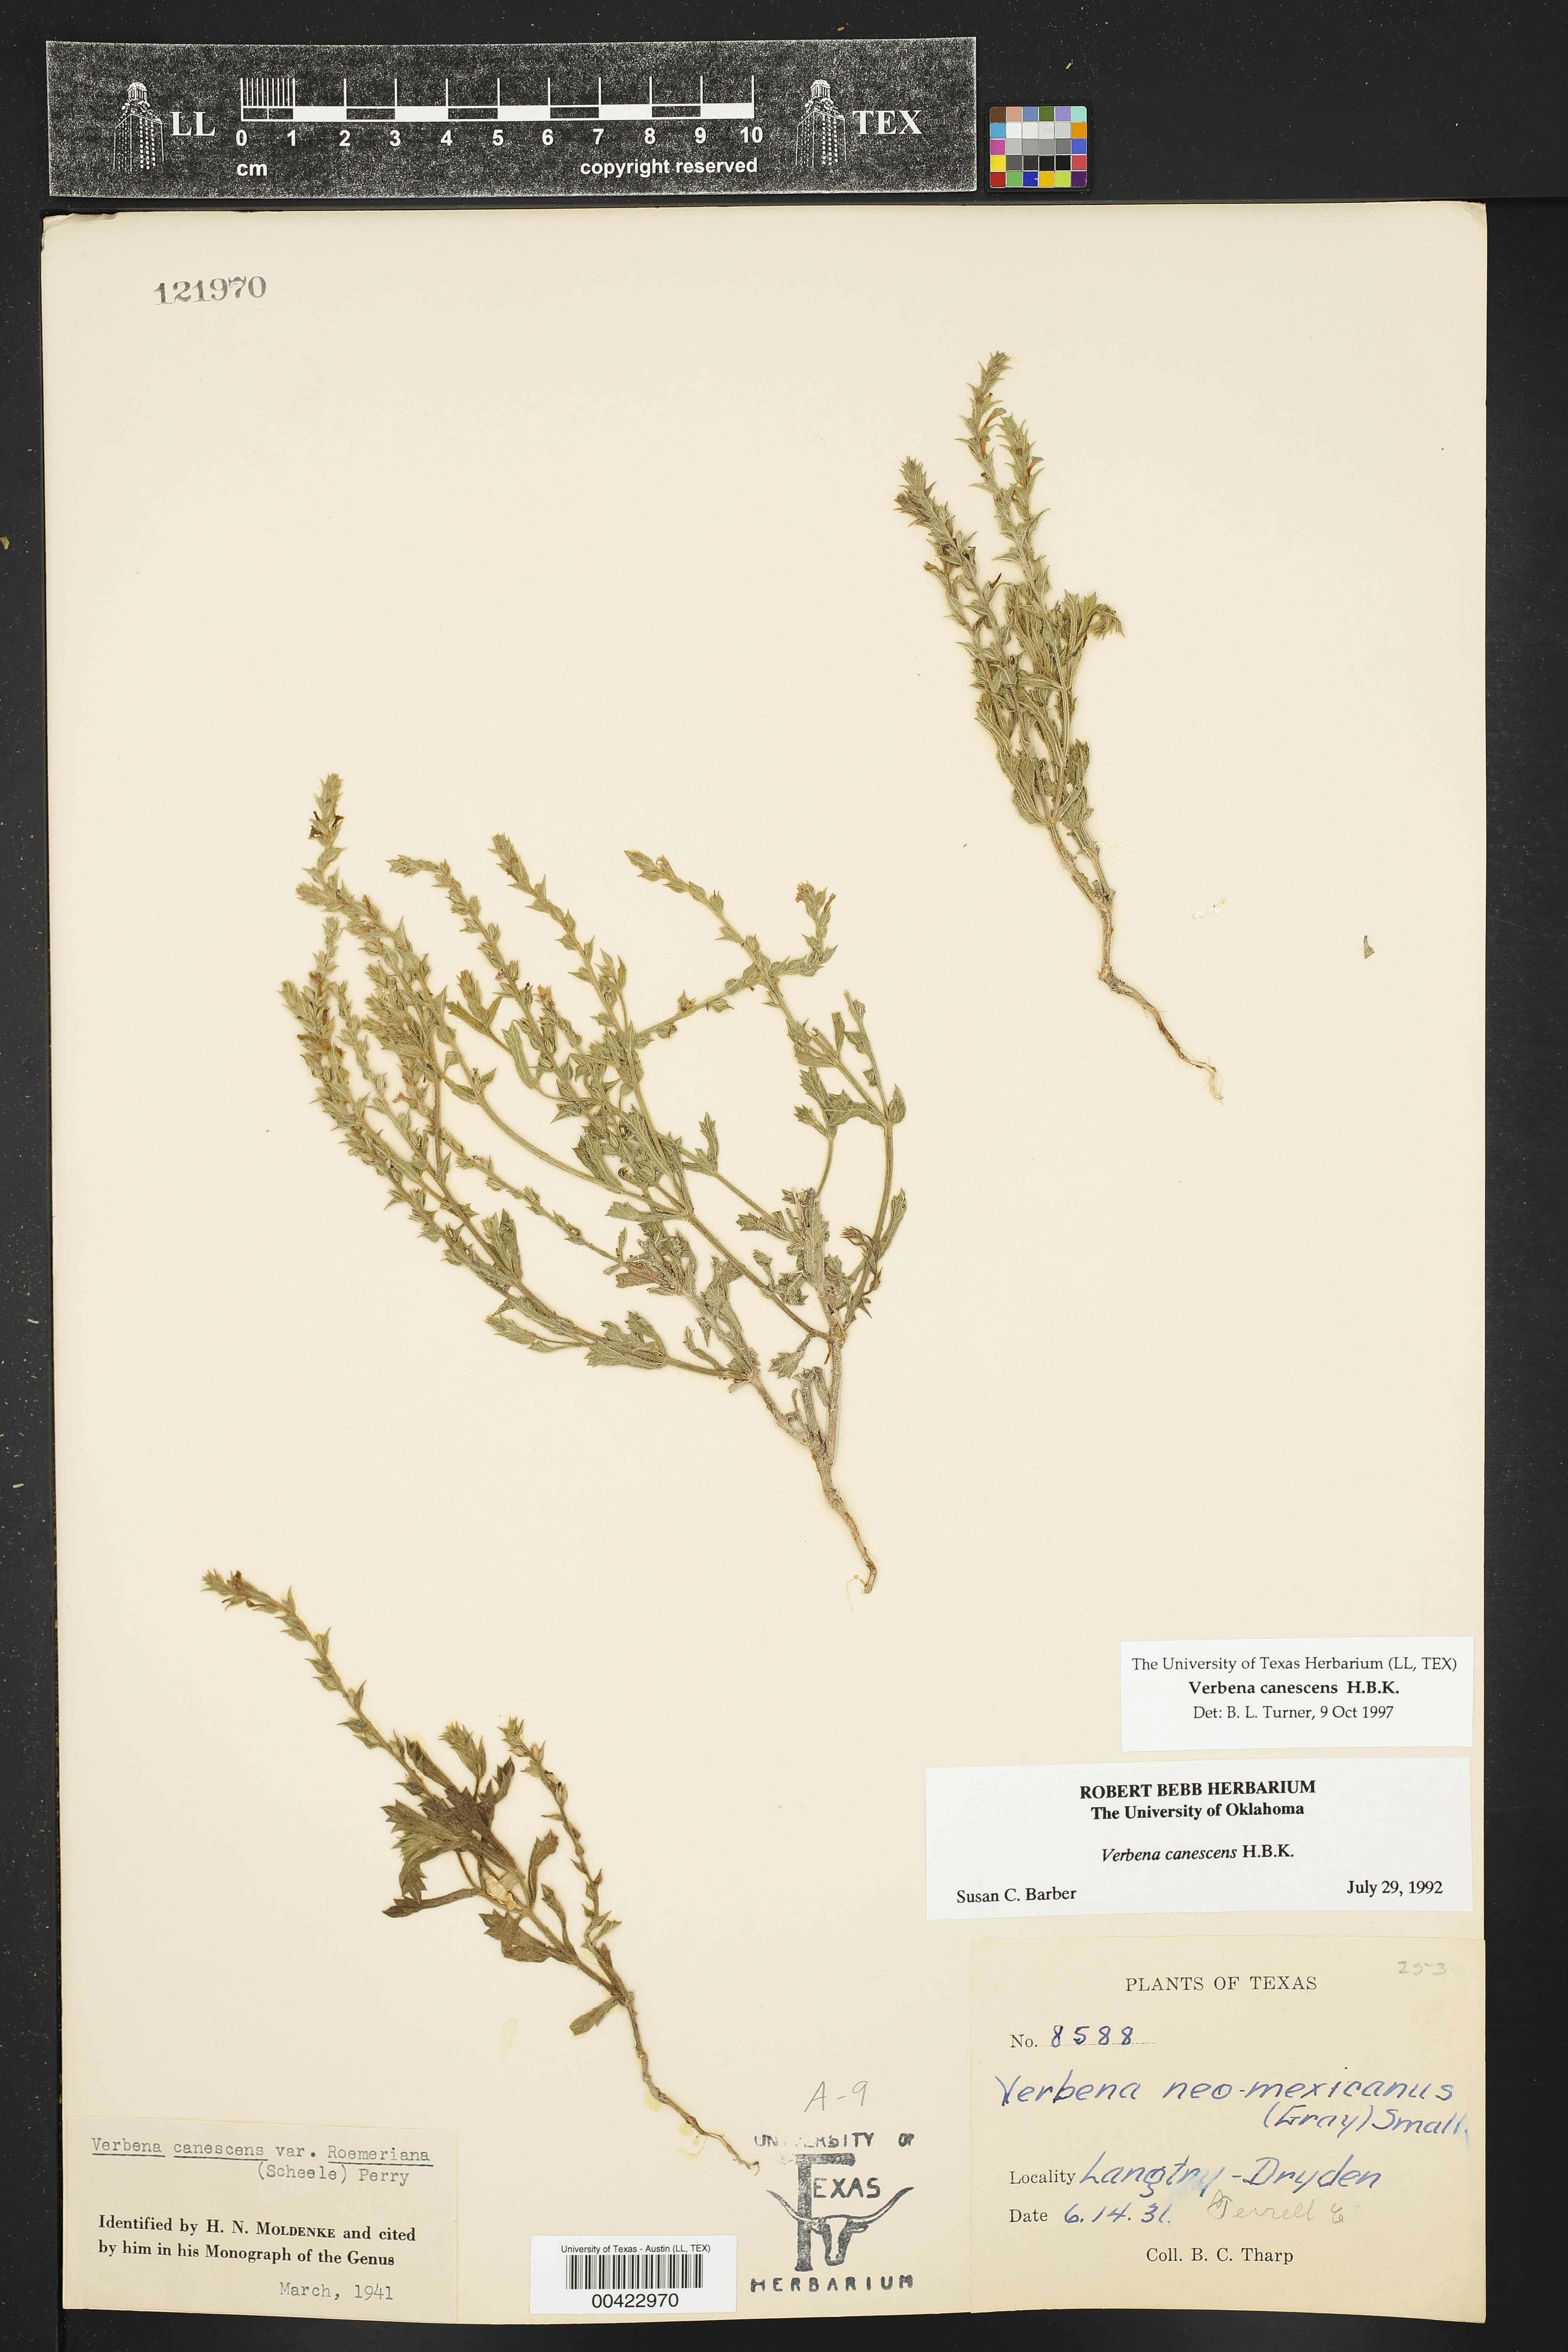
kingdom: Plantae
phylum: Tracheophyta
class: Magnoliopsida
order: Lamiales
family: Verbenaceae
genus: Verbena
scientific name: Verbena canescens
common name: Gray vervain
